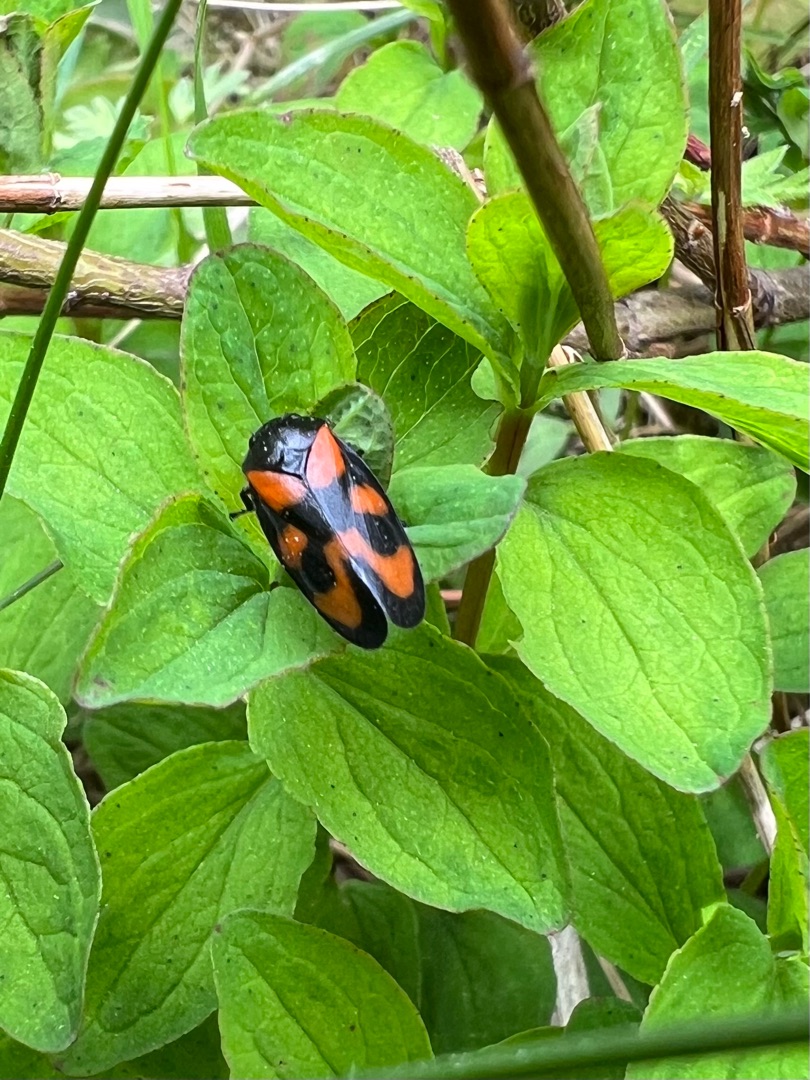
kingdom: Animalia
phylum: Arthropoda
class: Insecta
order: Hemiptera
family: Cercopidae
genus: Cercopis
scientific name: Cercopis vulnerata
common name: Blodcikade
